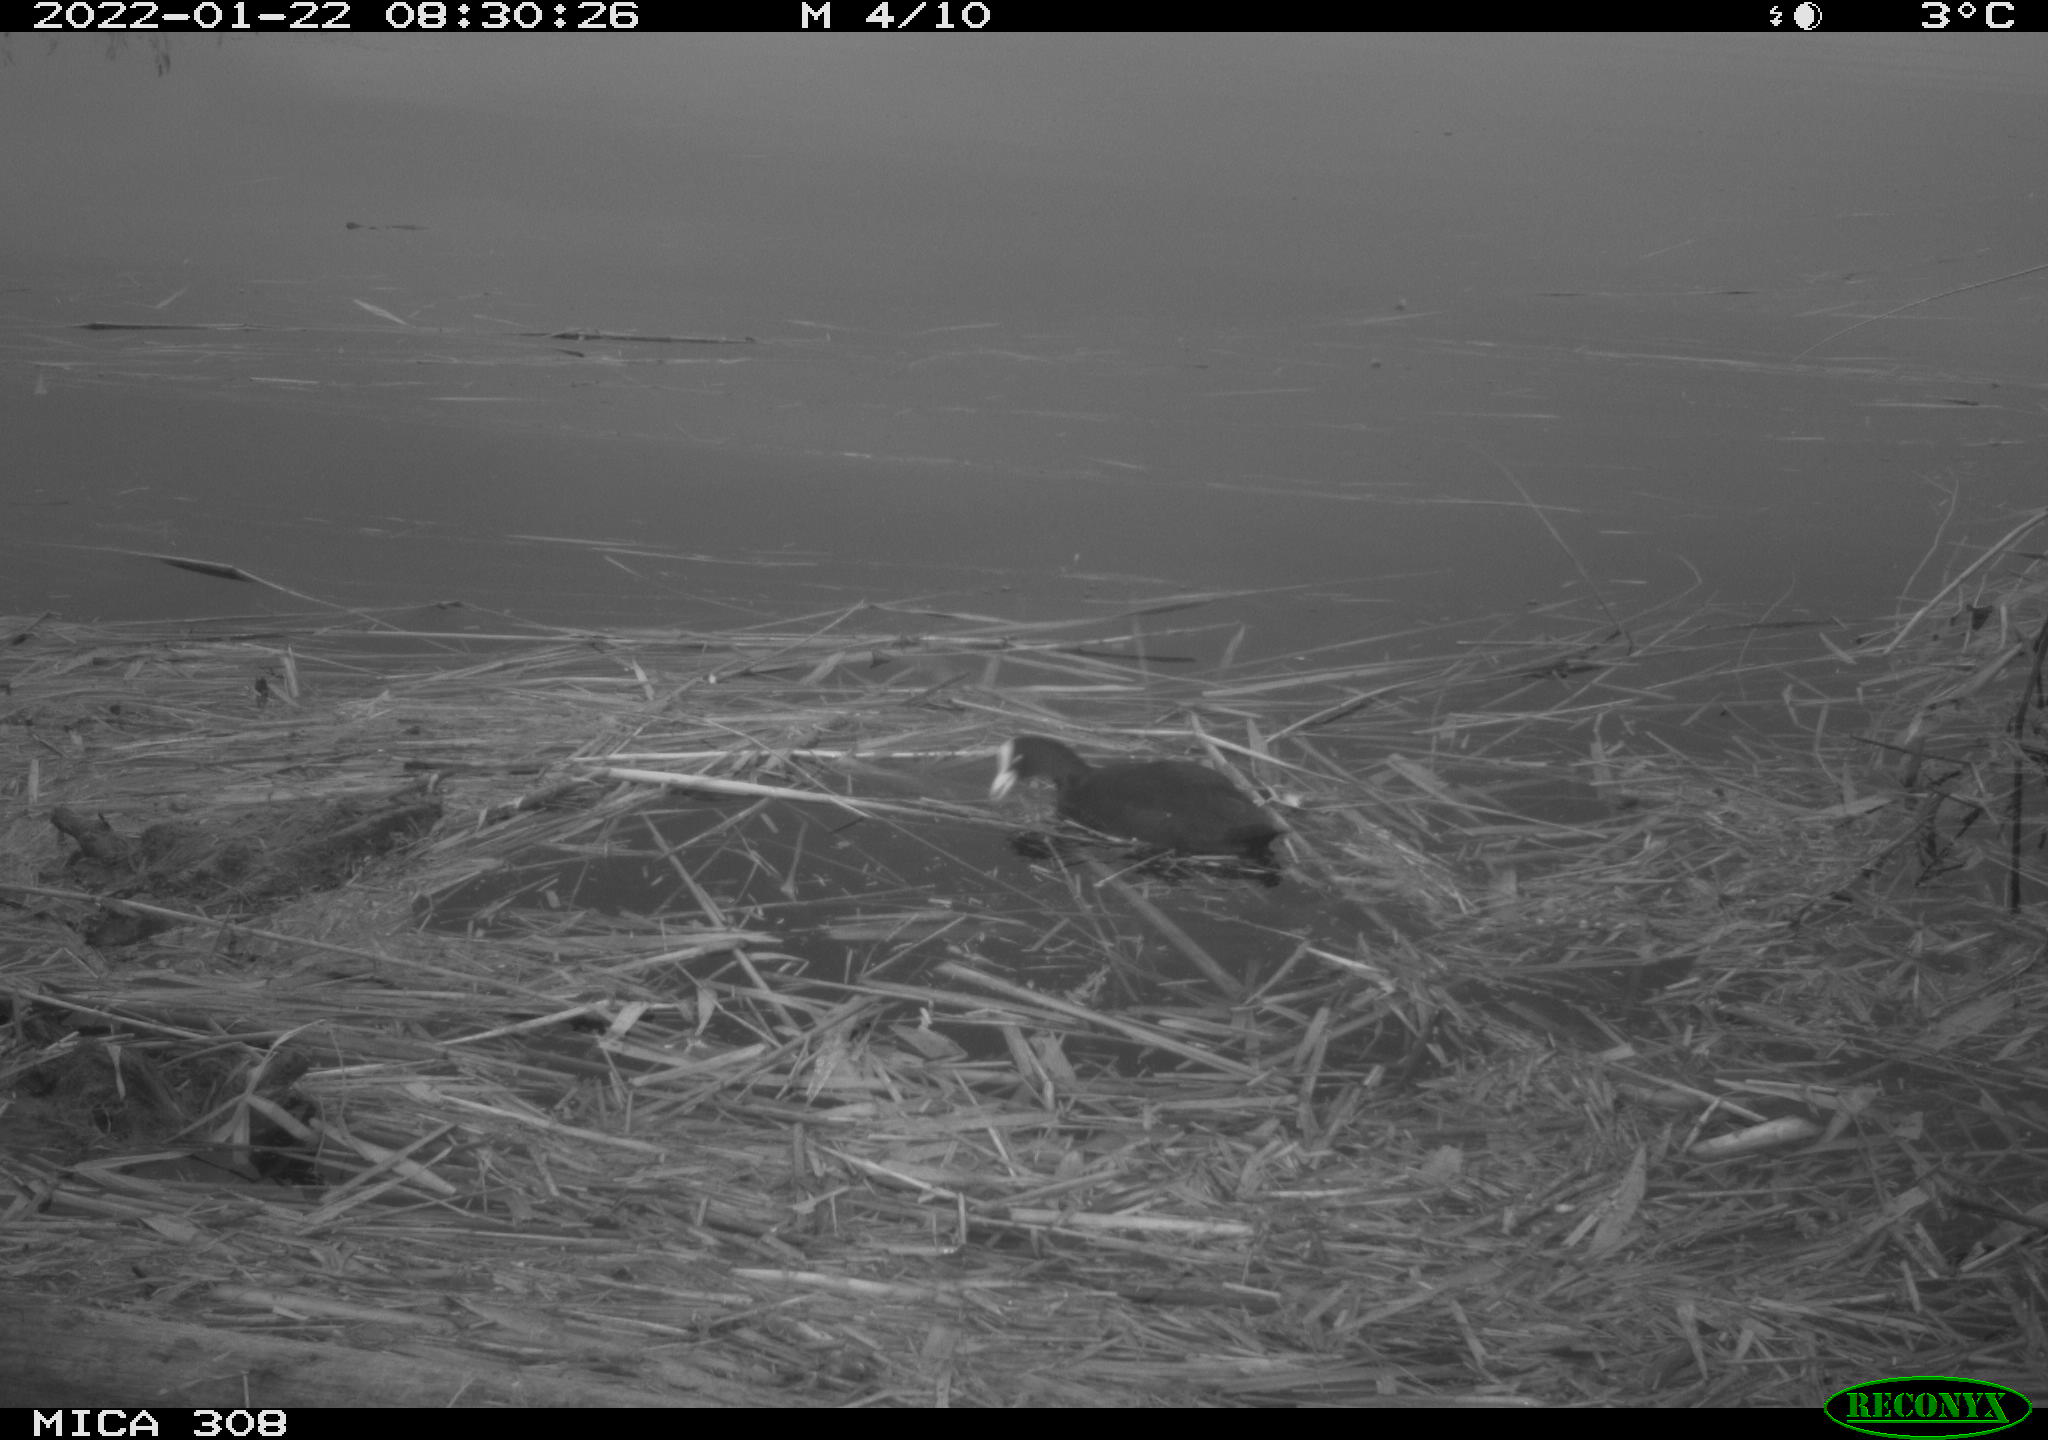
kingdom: Animalia
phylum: Chordata
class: Aves
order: Gruiformes
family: Rallidae
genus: Gallinula
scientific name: Gallinula chloropus
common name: Common moorhen
